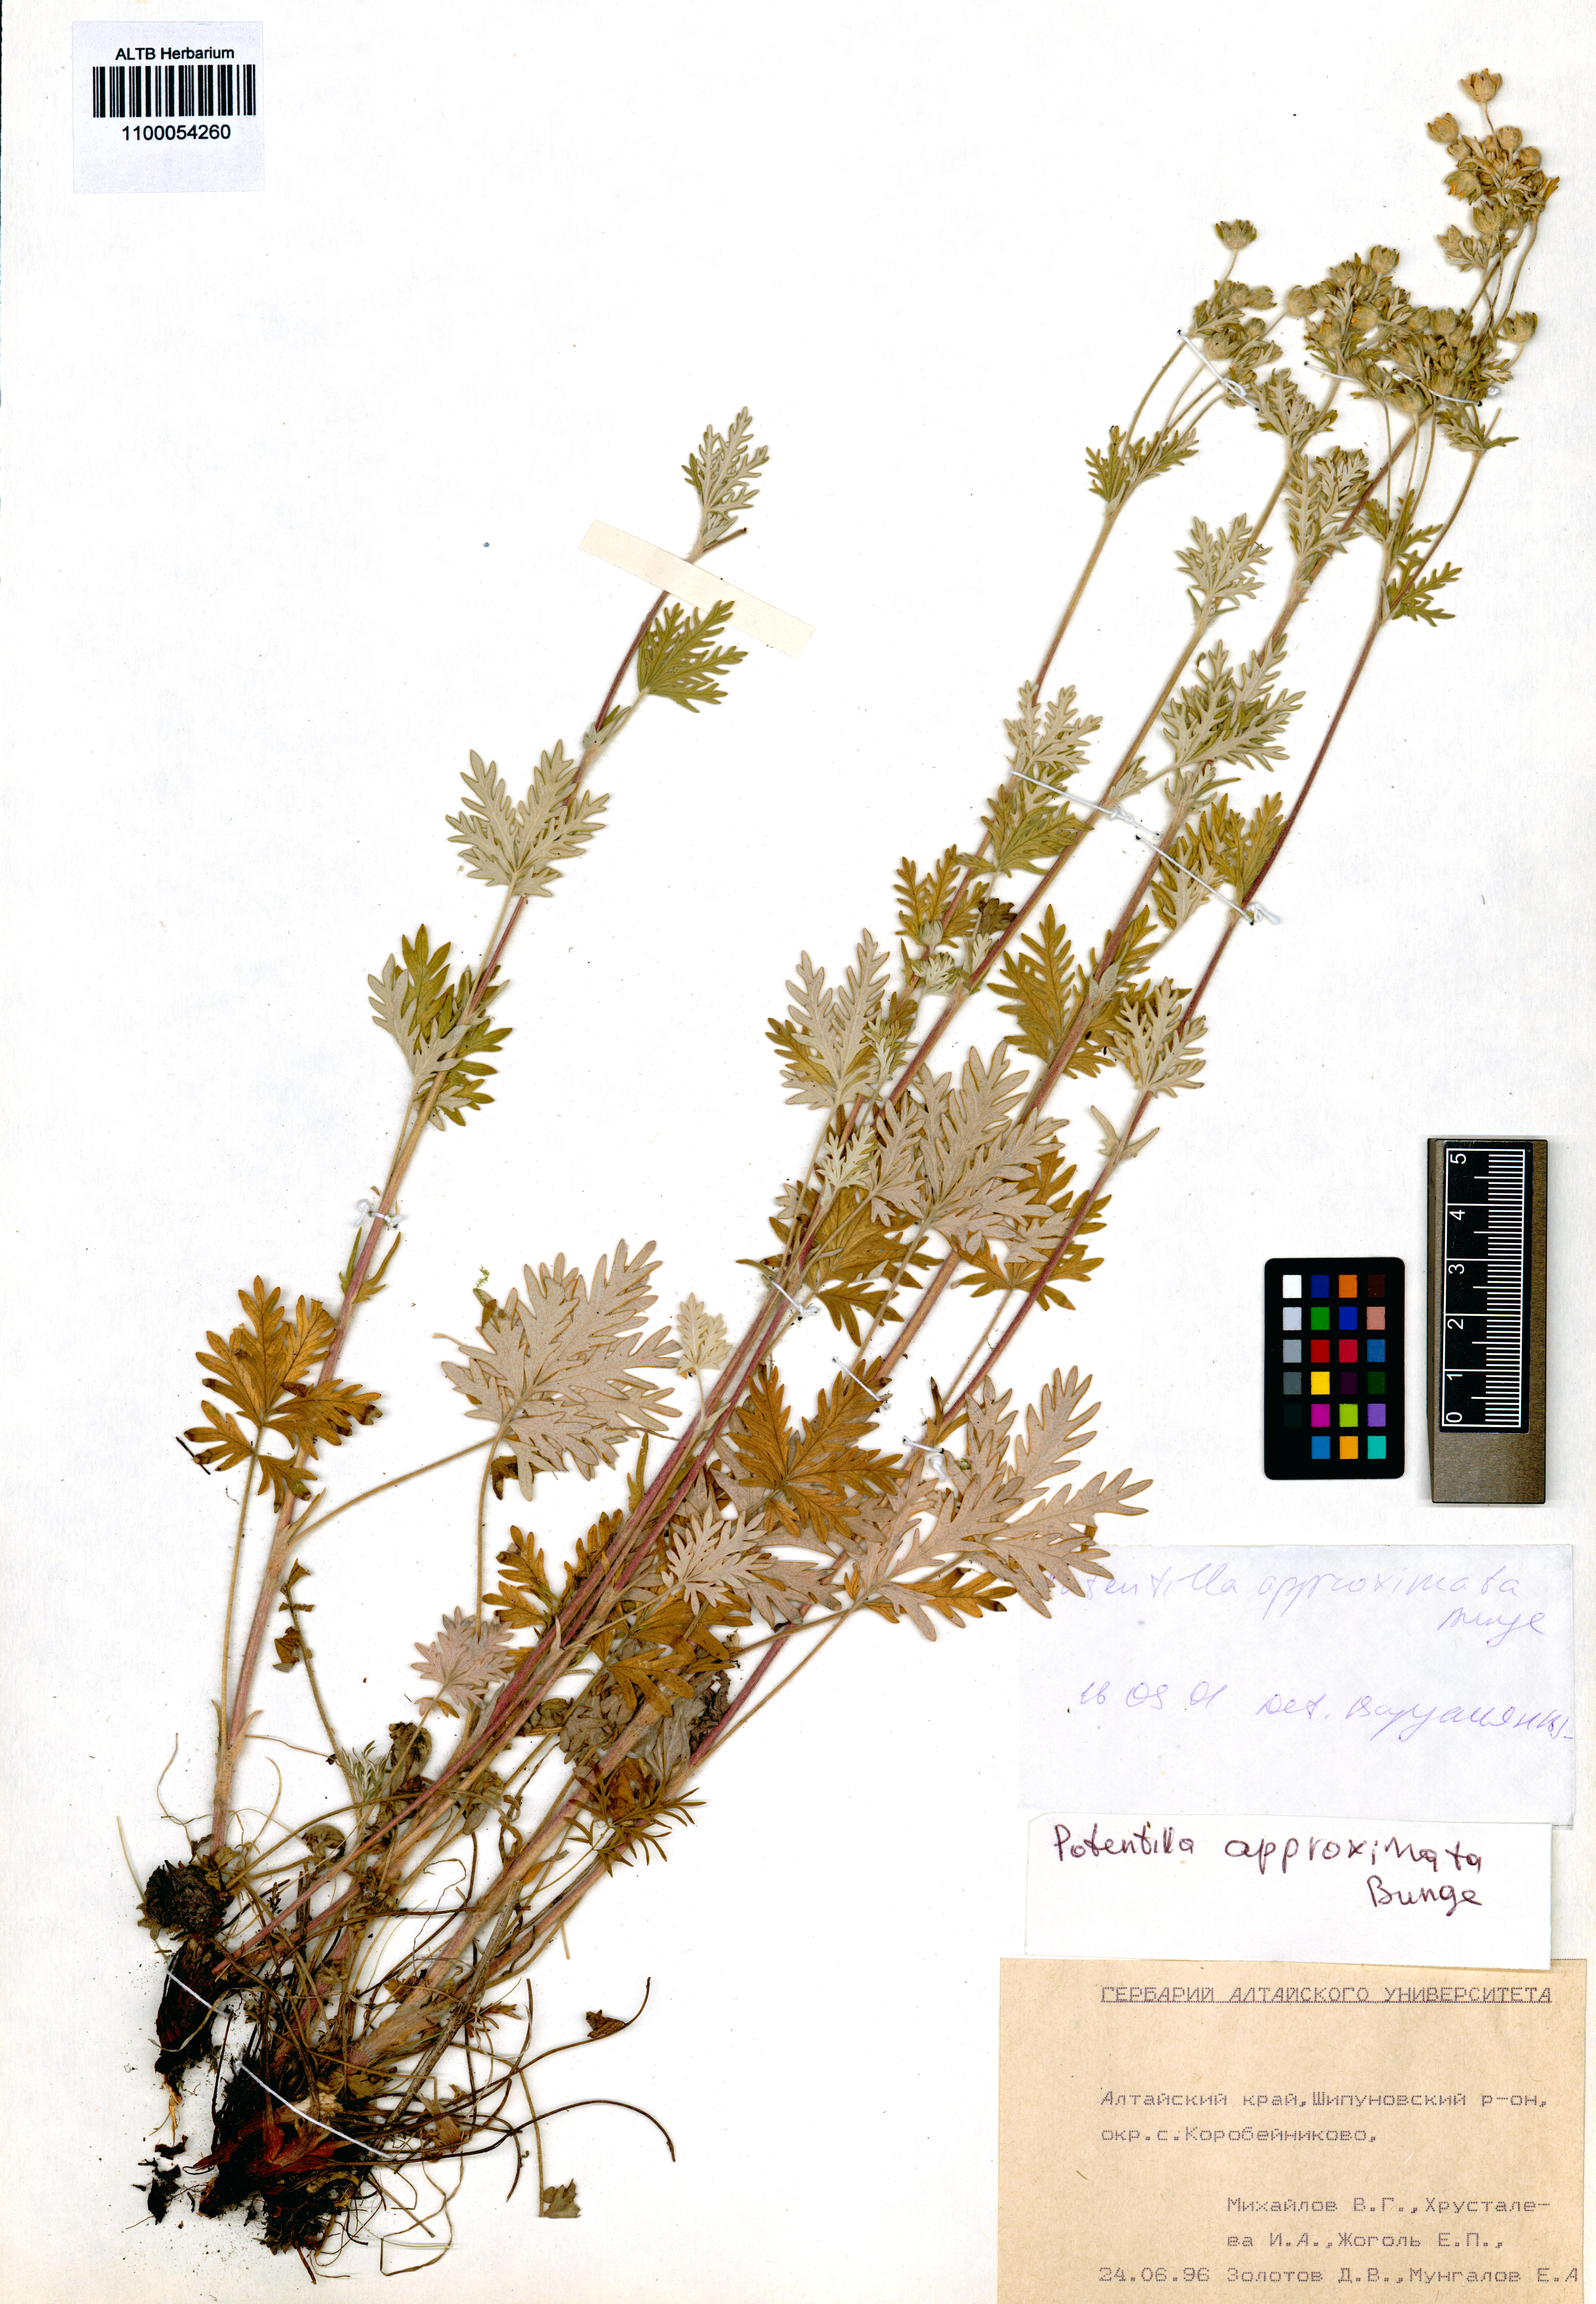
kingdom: Plantae
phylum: Tracheophyta
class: Magnoliopsida
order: Rosales
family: Rosaceae
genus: Potentilla
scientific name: Potentilla conferta
